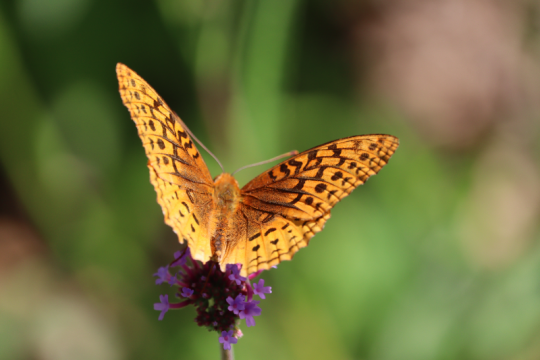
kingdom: Animalia
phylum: Arthropoda
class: Insecta
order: Lepidoptera
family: Nymphalidae
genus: Speyeria
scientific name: Speyeria cybele
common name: Great Spangled Fritillary
